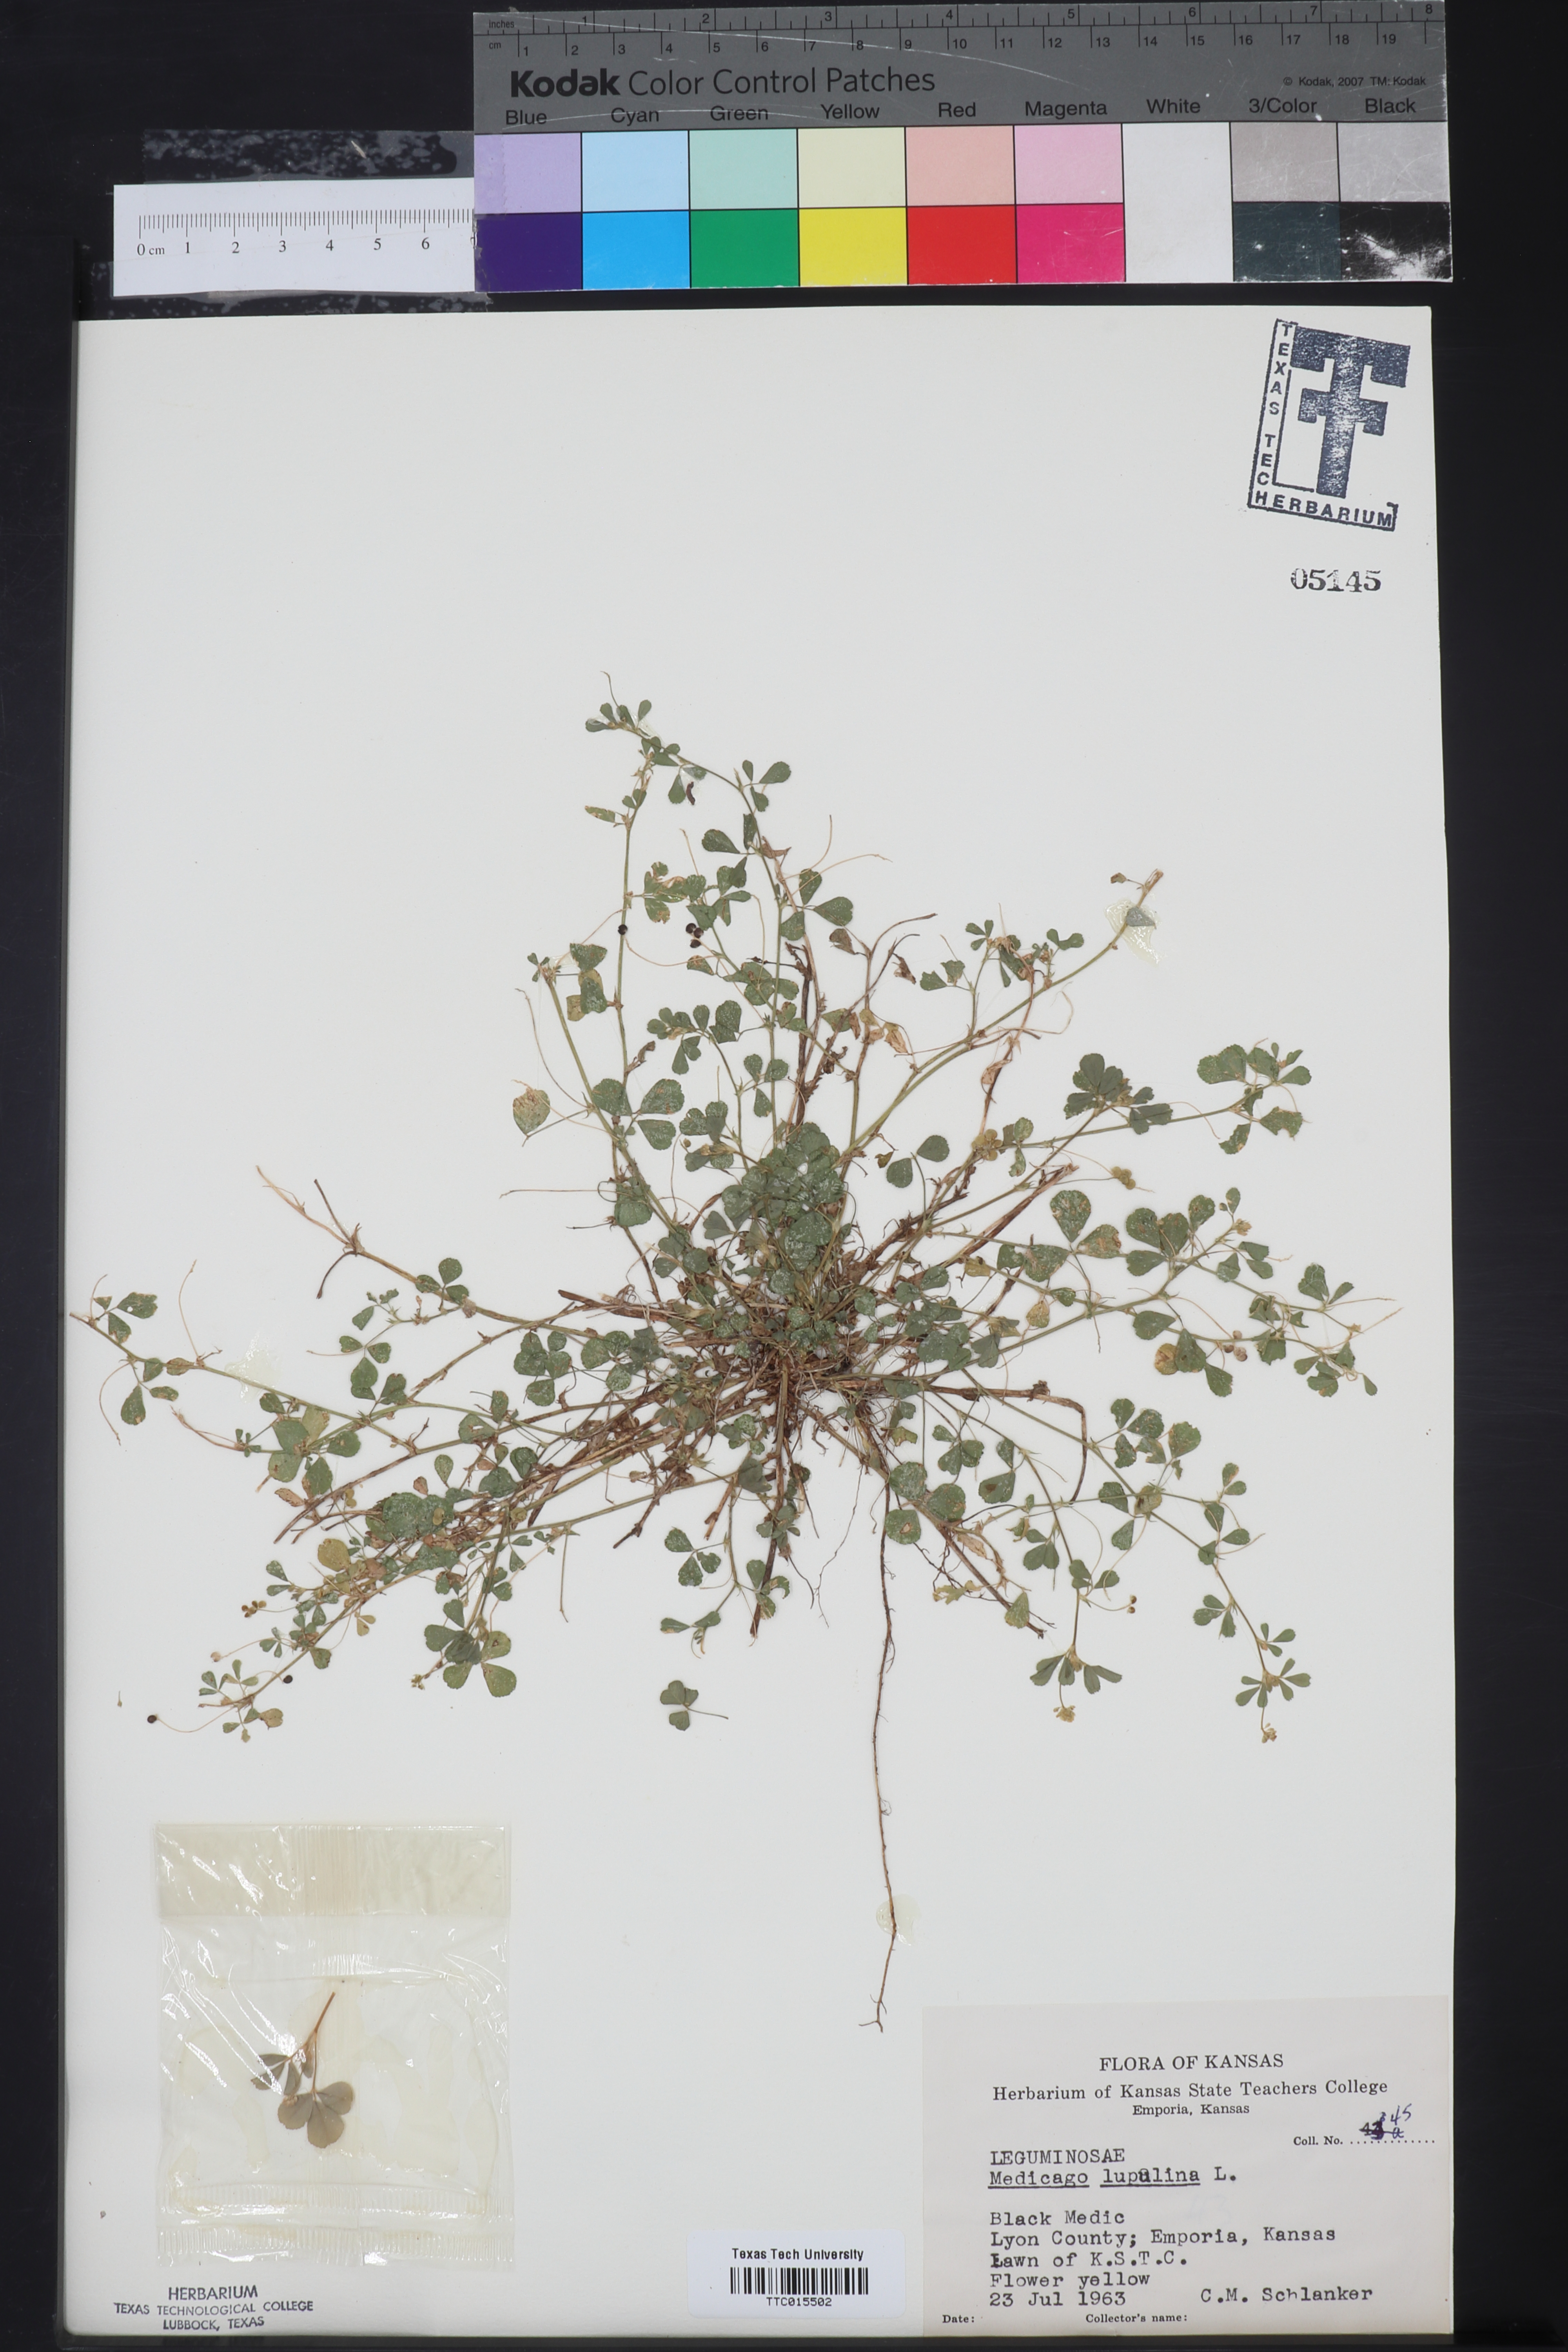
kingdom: Plantae
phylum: Tracheophyta
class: Magnoliopsida
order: Fabales
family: Fabaceae
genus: Medicago
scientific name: Medicago lupulina
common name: Black medick
